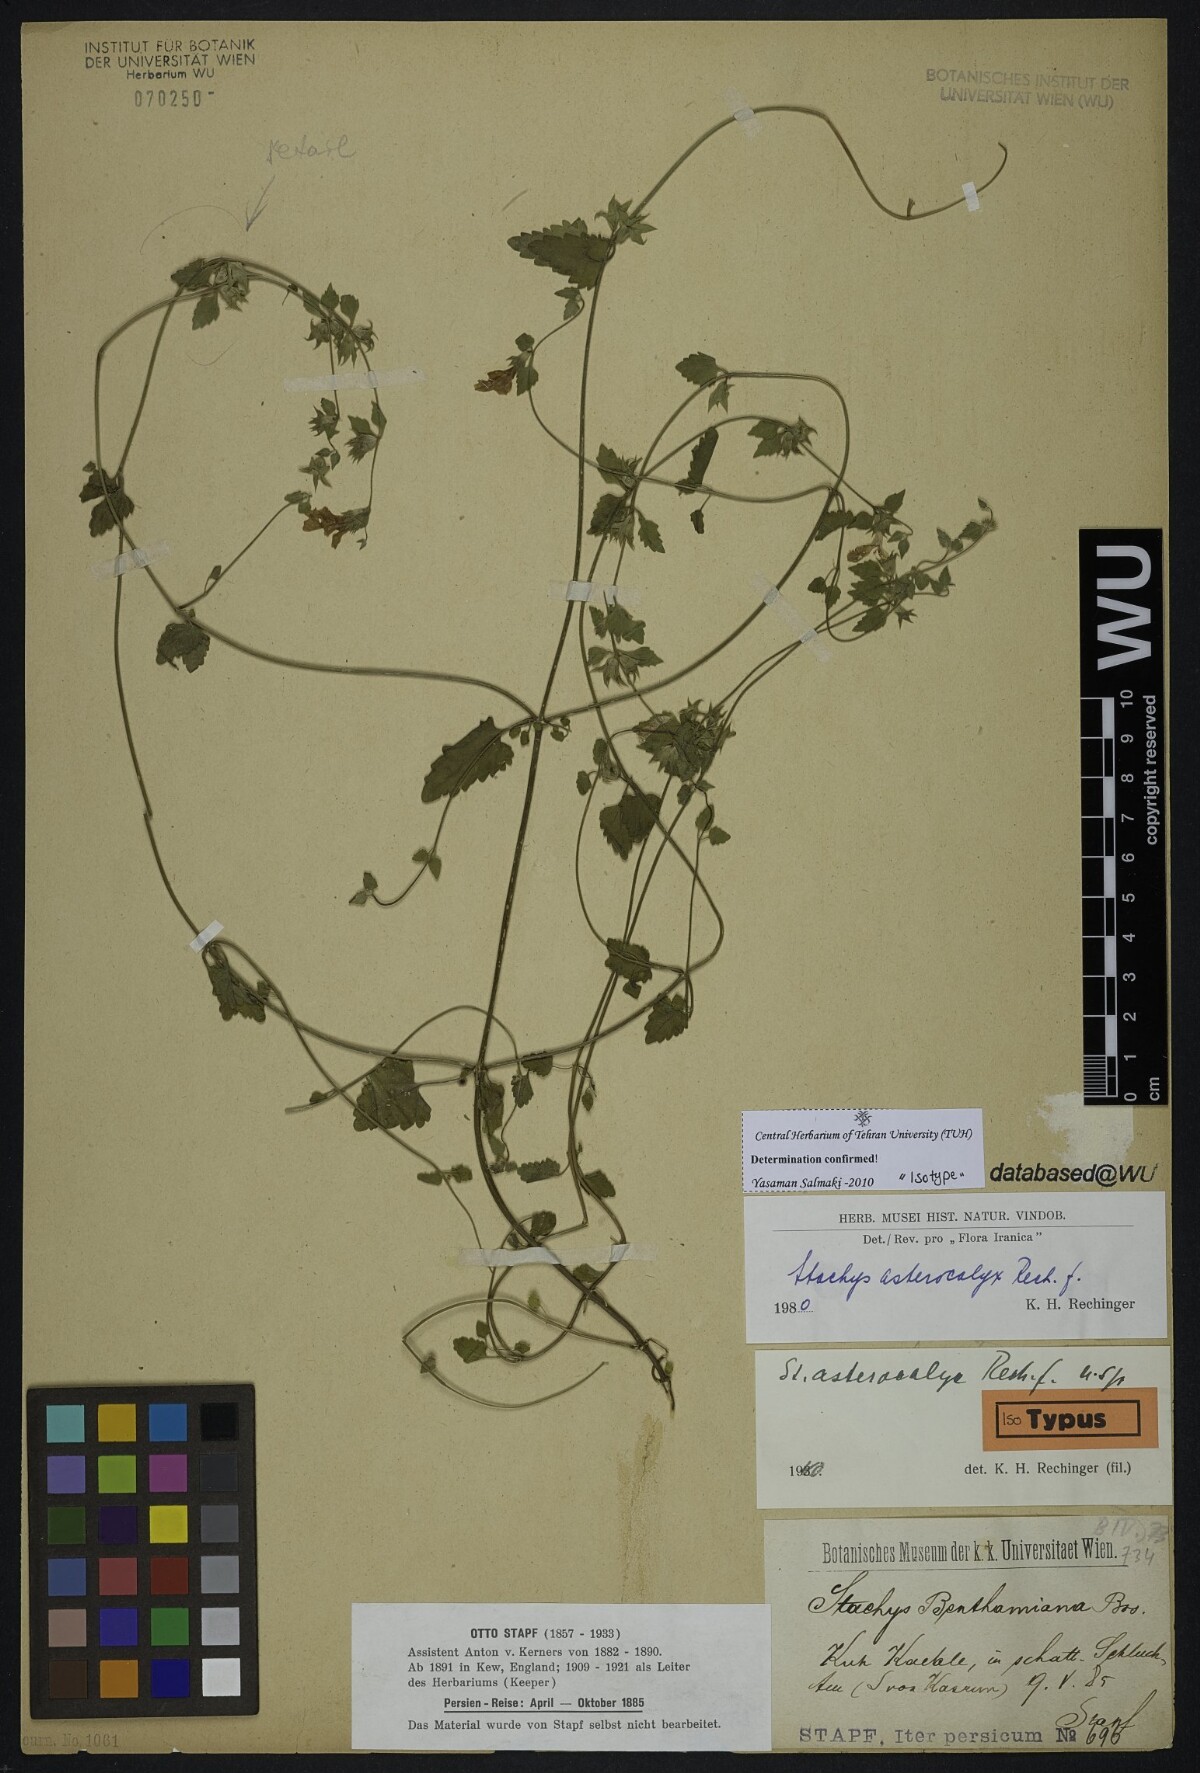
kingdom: Plantae
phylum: Tracheophyta
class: Magnoliopsida
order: Lamiales
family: Lamiaceae
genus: Stachys
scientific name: Stachys kurdica
